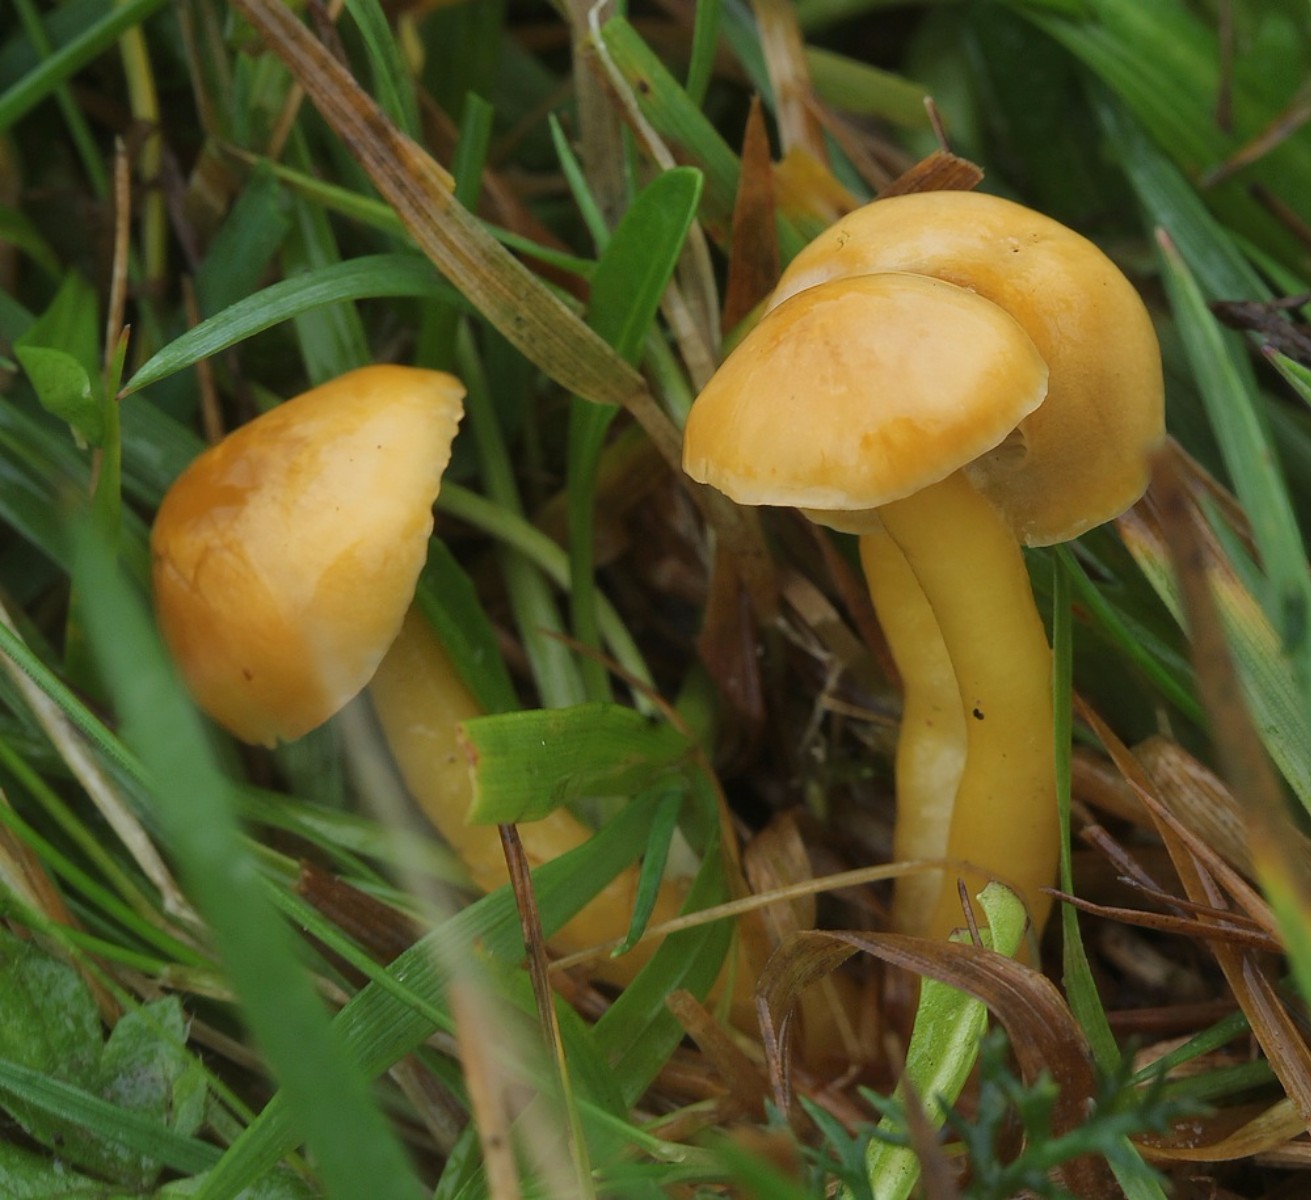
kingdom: Fungi
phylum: Basidiomycota
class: Agaricomycetes
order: Agaricales
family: Hygrophoraceae
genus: Gliophorus
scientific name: Gliophorus psittacinus
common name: papegøje-vokshat
